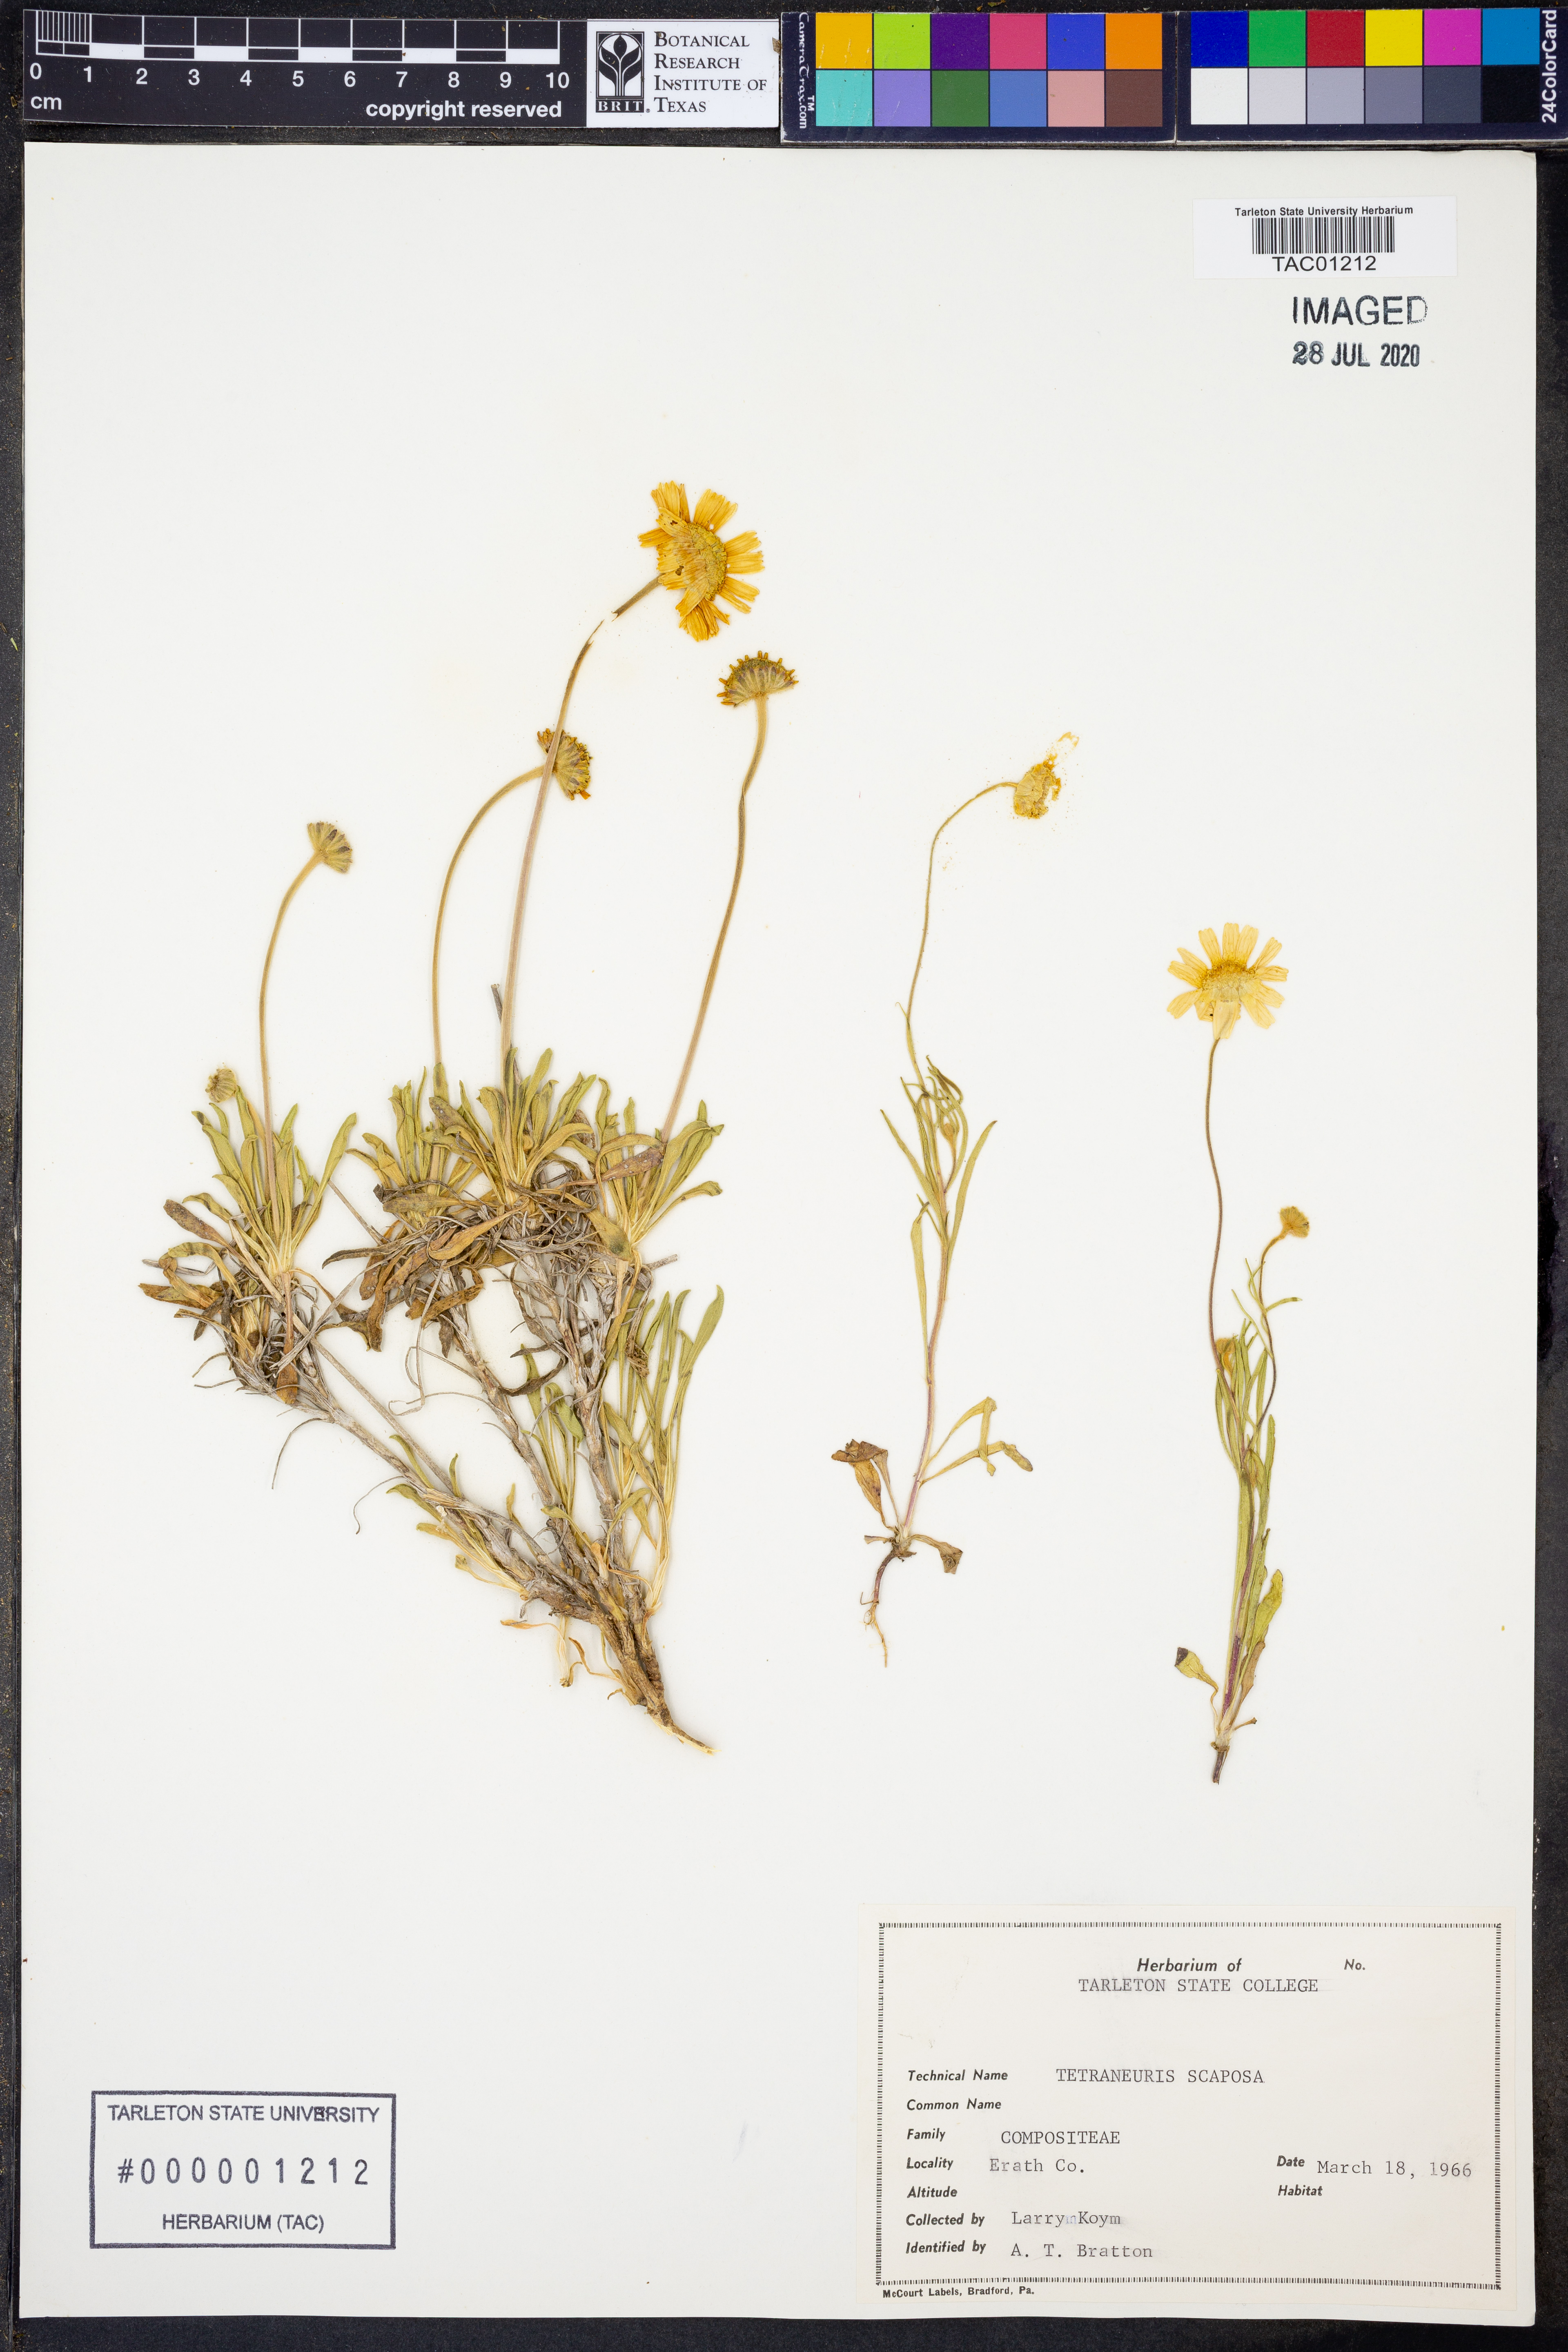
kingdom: Plantae
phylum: Tracheophyta
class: Magnoliopsida
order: Asterales
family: Asteraceae
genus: Tetraneuris
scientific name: Tetraneuris scaposa
